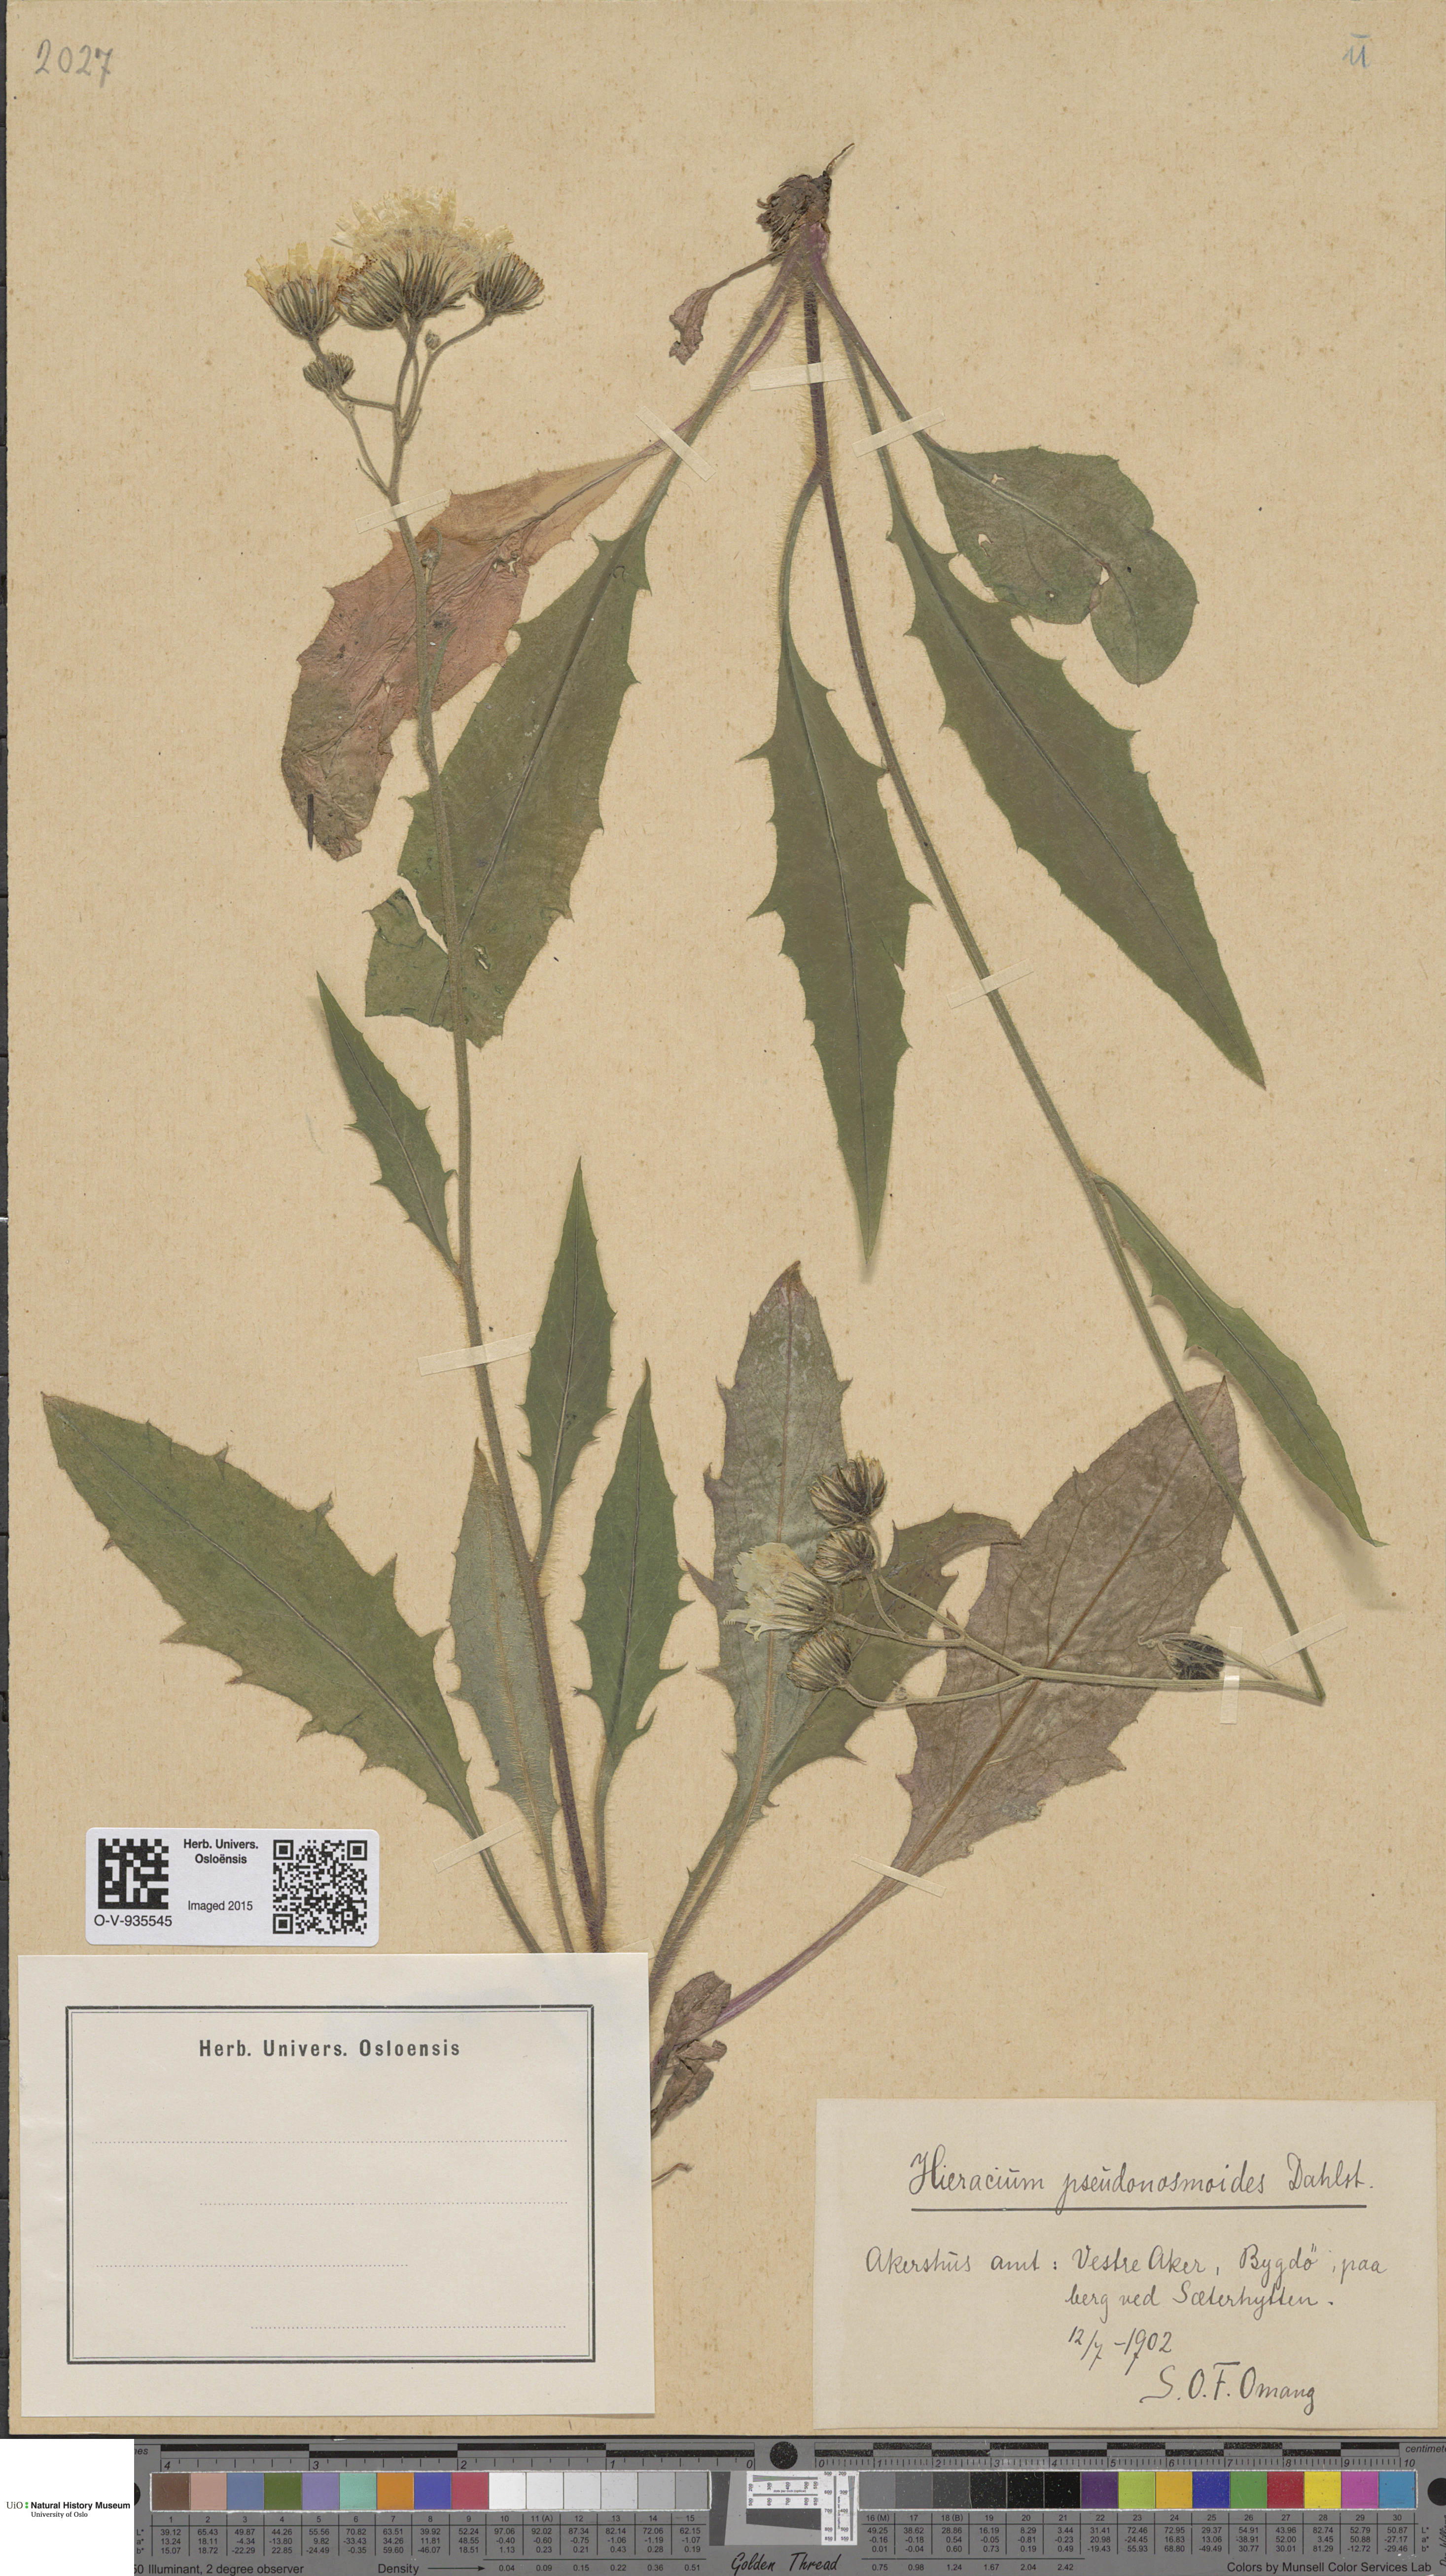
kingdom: Plantae
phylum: Tracheophyta
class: Magnoliopsida
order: Asterales
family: Asteraceae
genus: Hieracium
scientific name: Hieracium saxifragum
